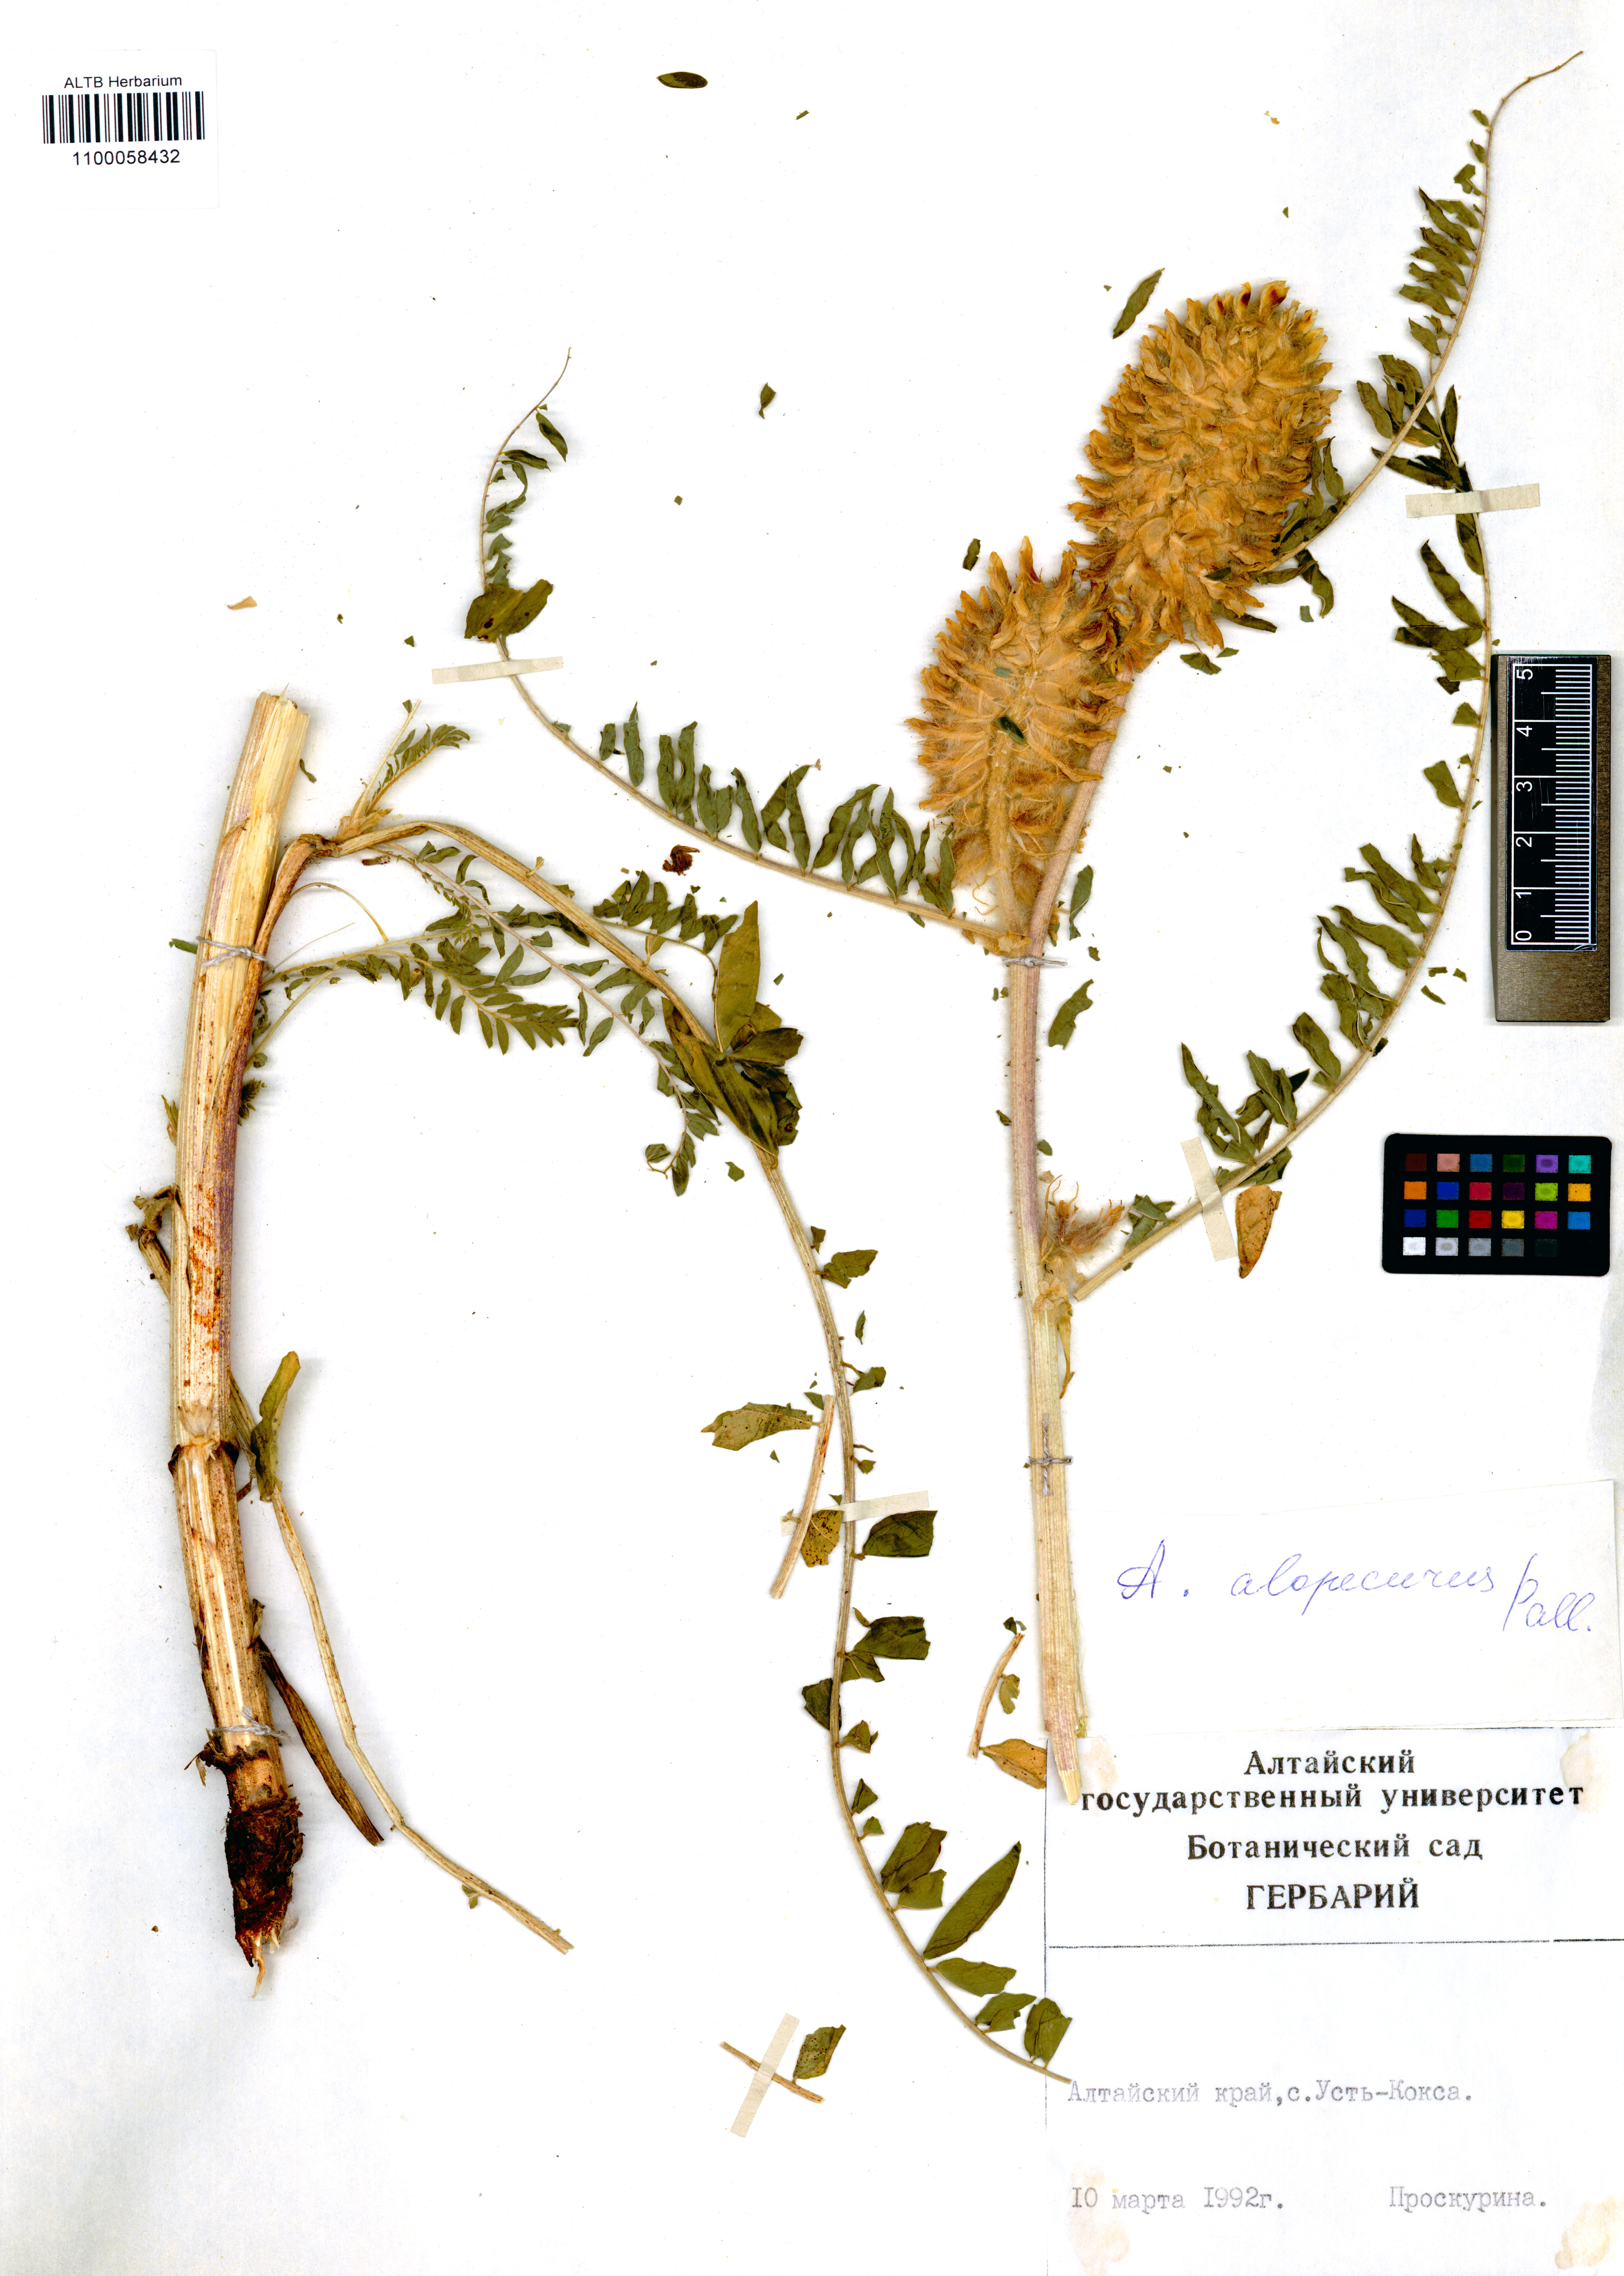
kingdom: Plantae
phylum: Tracheophyta
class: Magnoliopsida
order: Fabales
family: Fabaceae
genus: Astragalus
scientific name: Astragalus alopecurus
